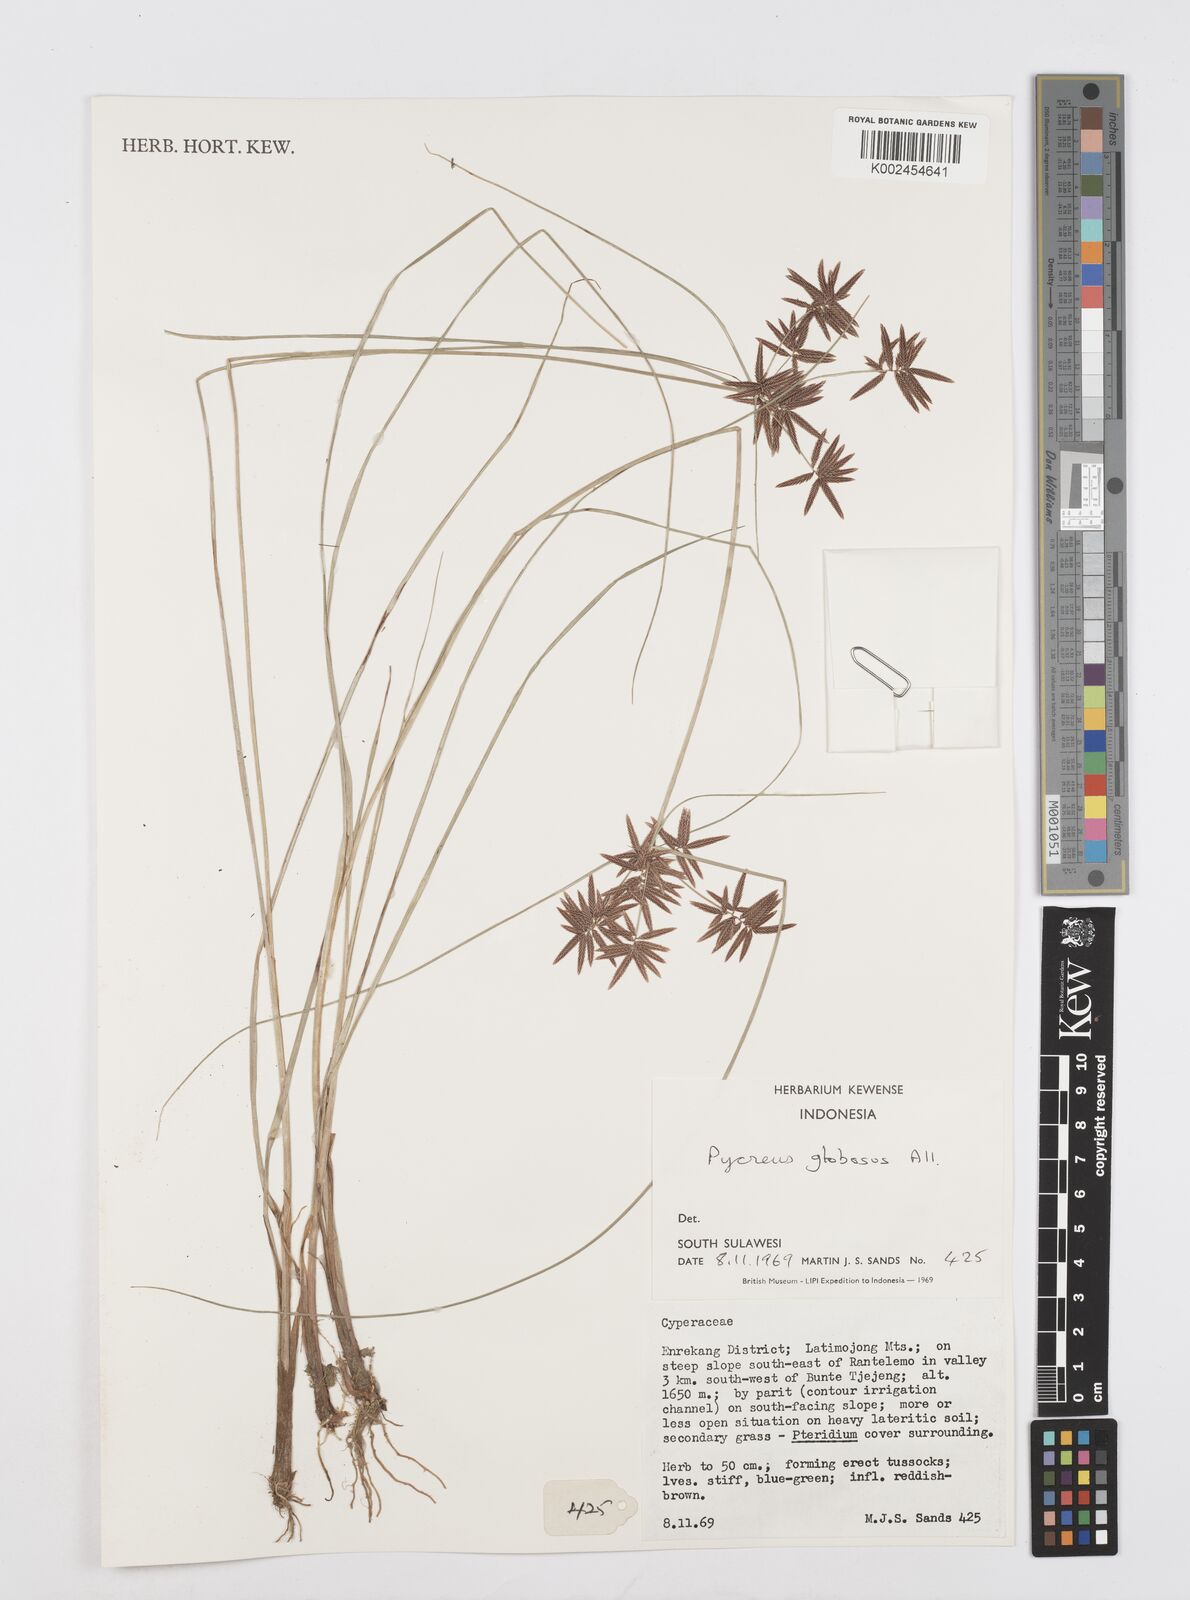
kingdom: Plantae
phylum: Tracheophyta
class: Liliopsida
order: Poales
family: Cyperaceae
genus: Cyperus
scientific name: Cyperus flavidus
